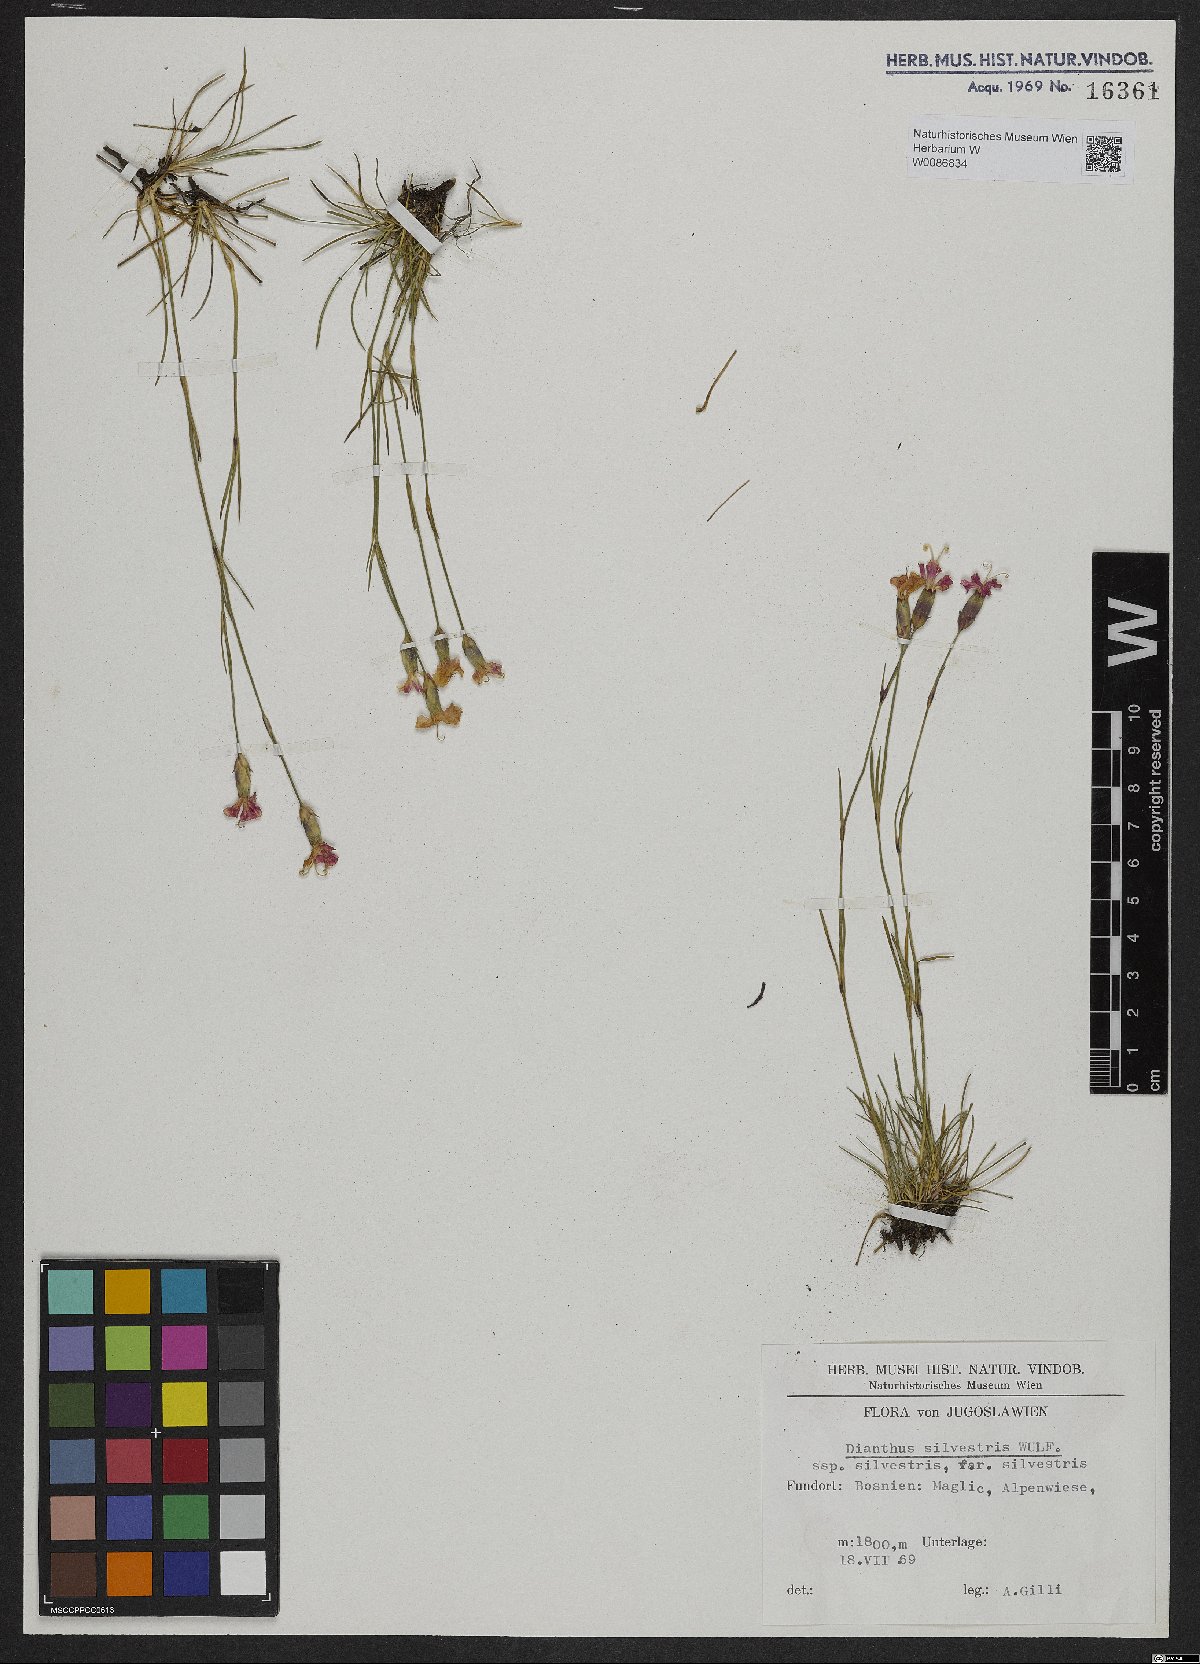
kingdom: Plantae
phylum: Tracheophyta
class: Magnoliopsida
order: Caryophyllales
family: Caryophyllaceae
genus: Dianthus
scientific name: Dianthus sylvestris
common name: Wood pink
